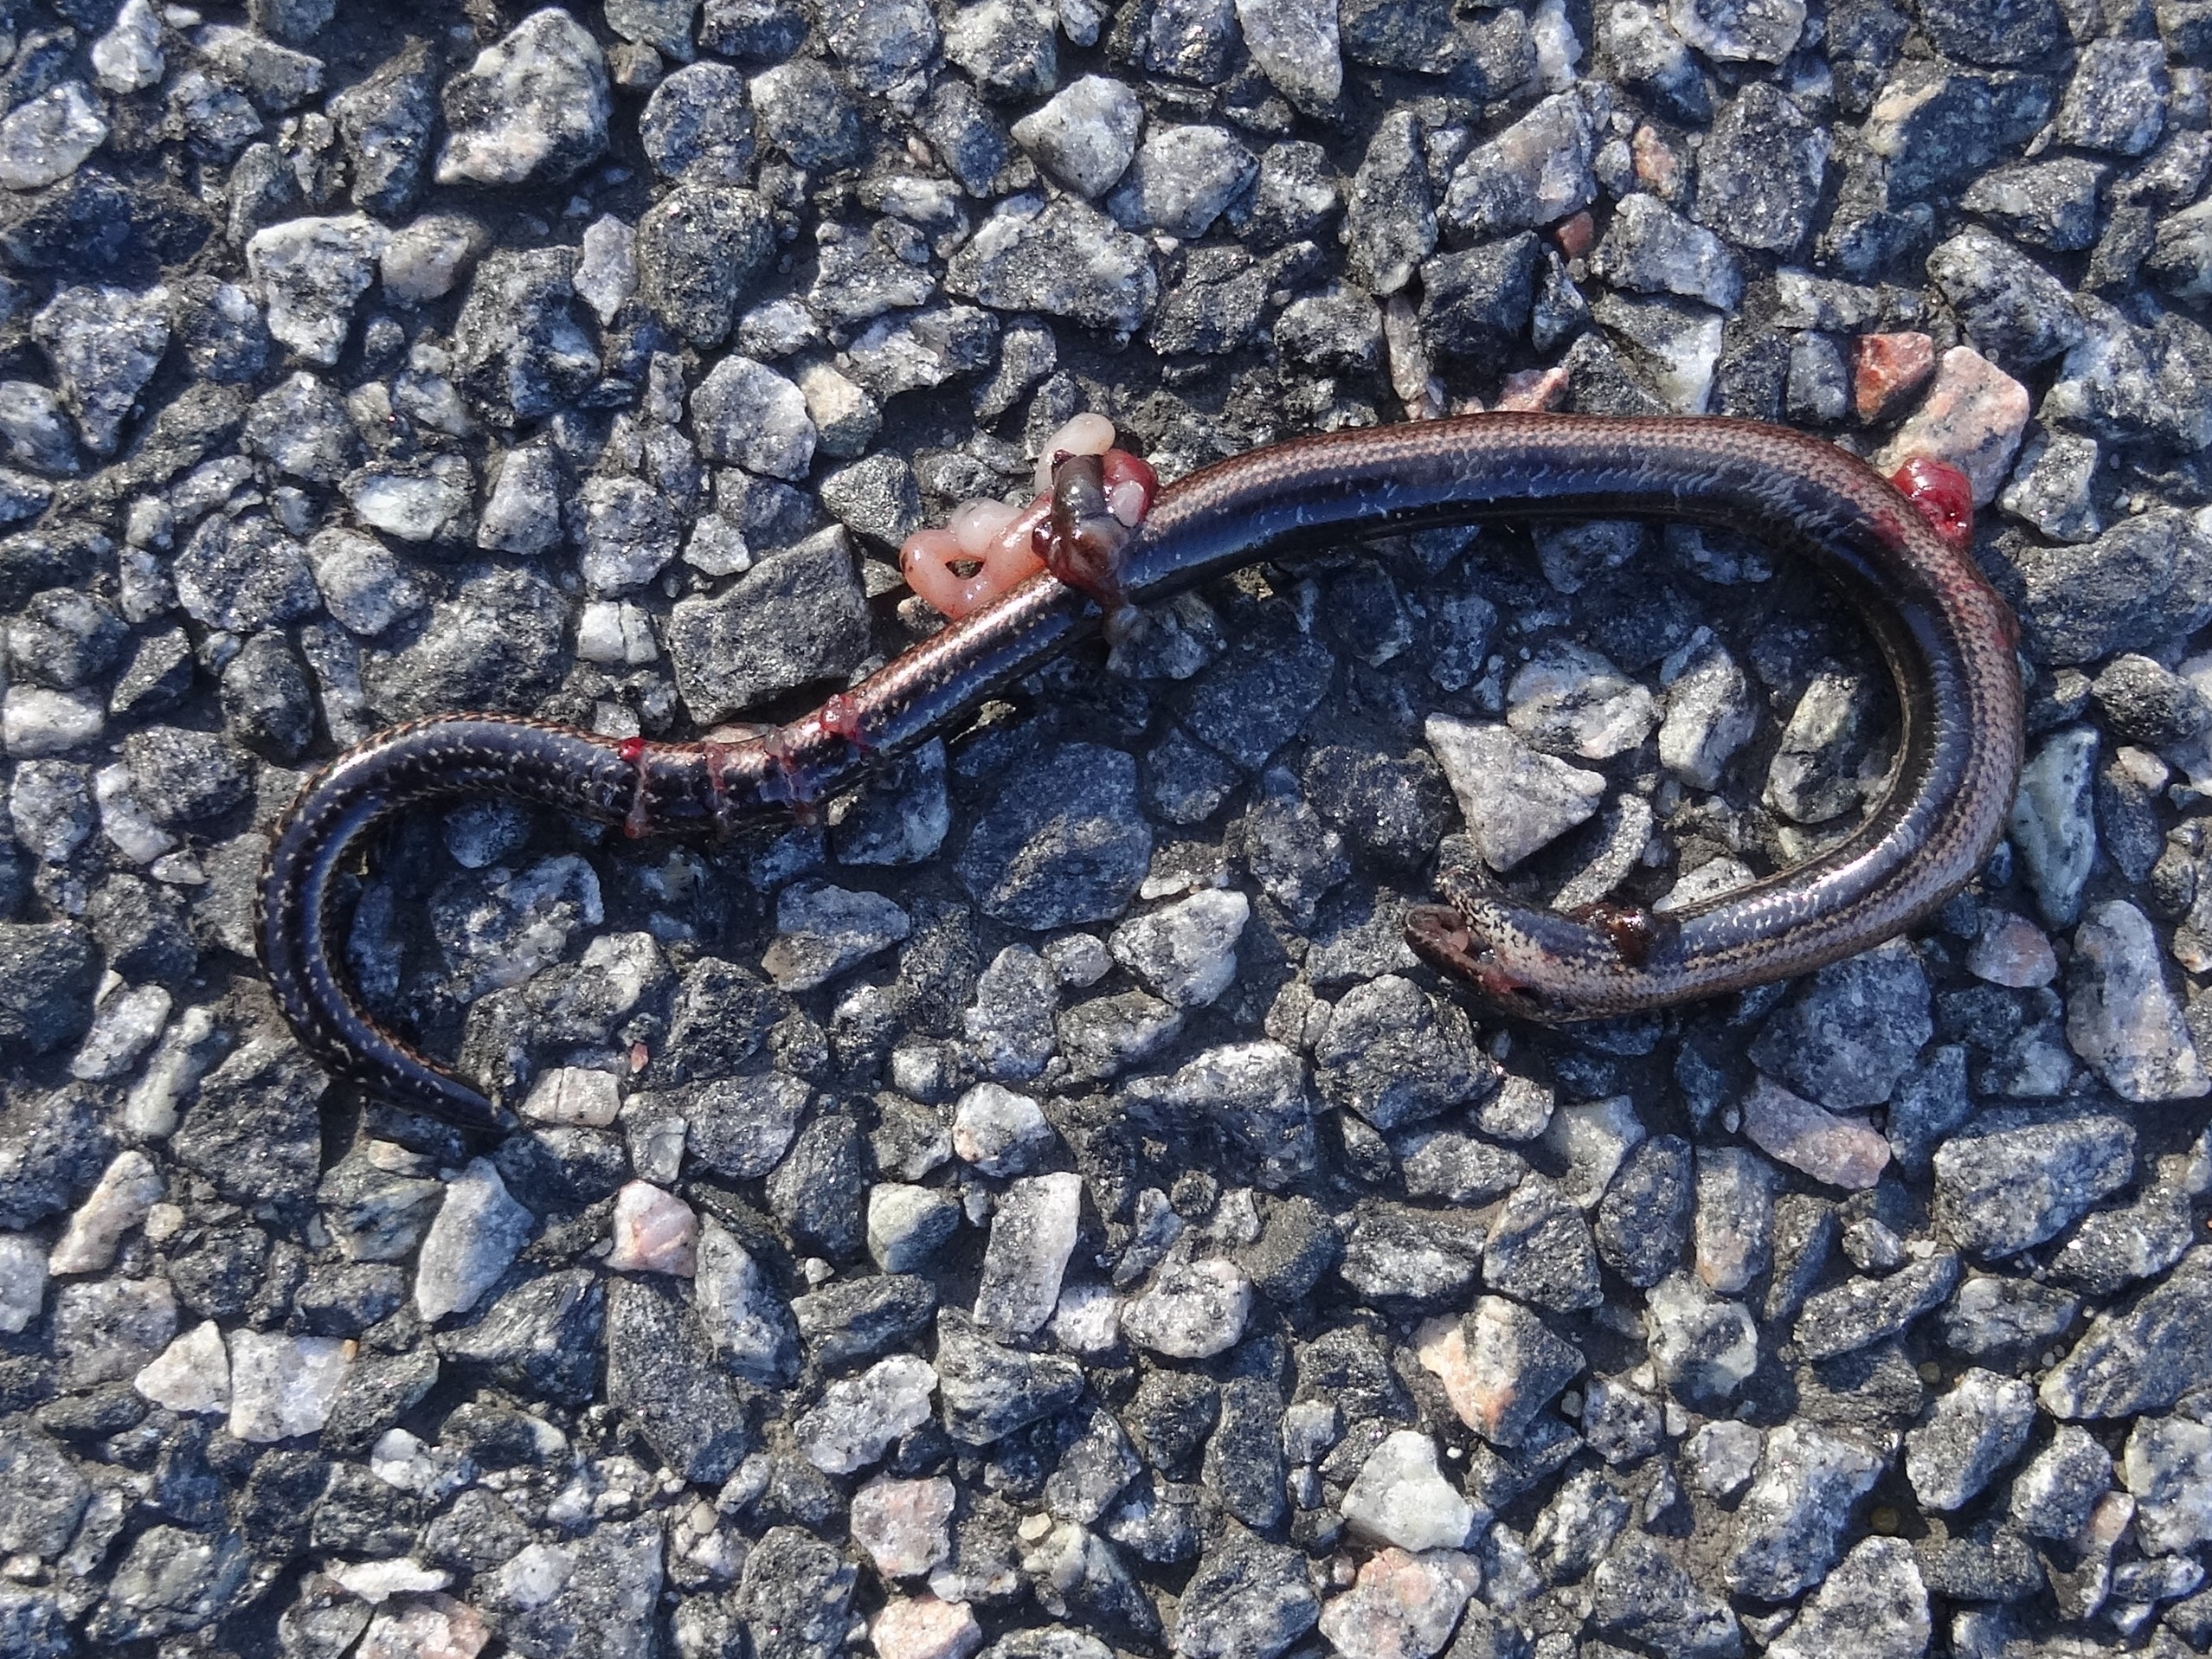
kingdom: Animalia
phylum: Chordata
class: Squamata
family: Anguidae
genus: Anguis
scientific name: Anguis fragilis
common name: Stålorm
